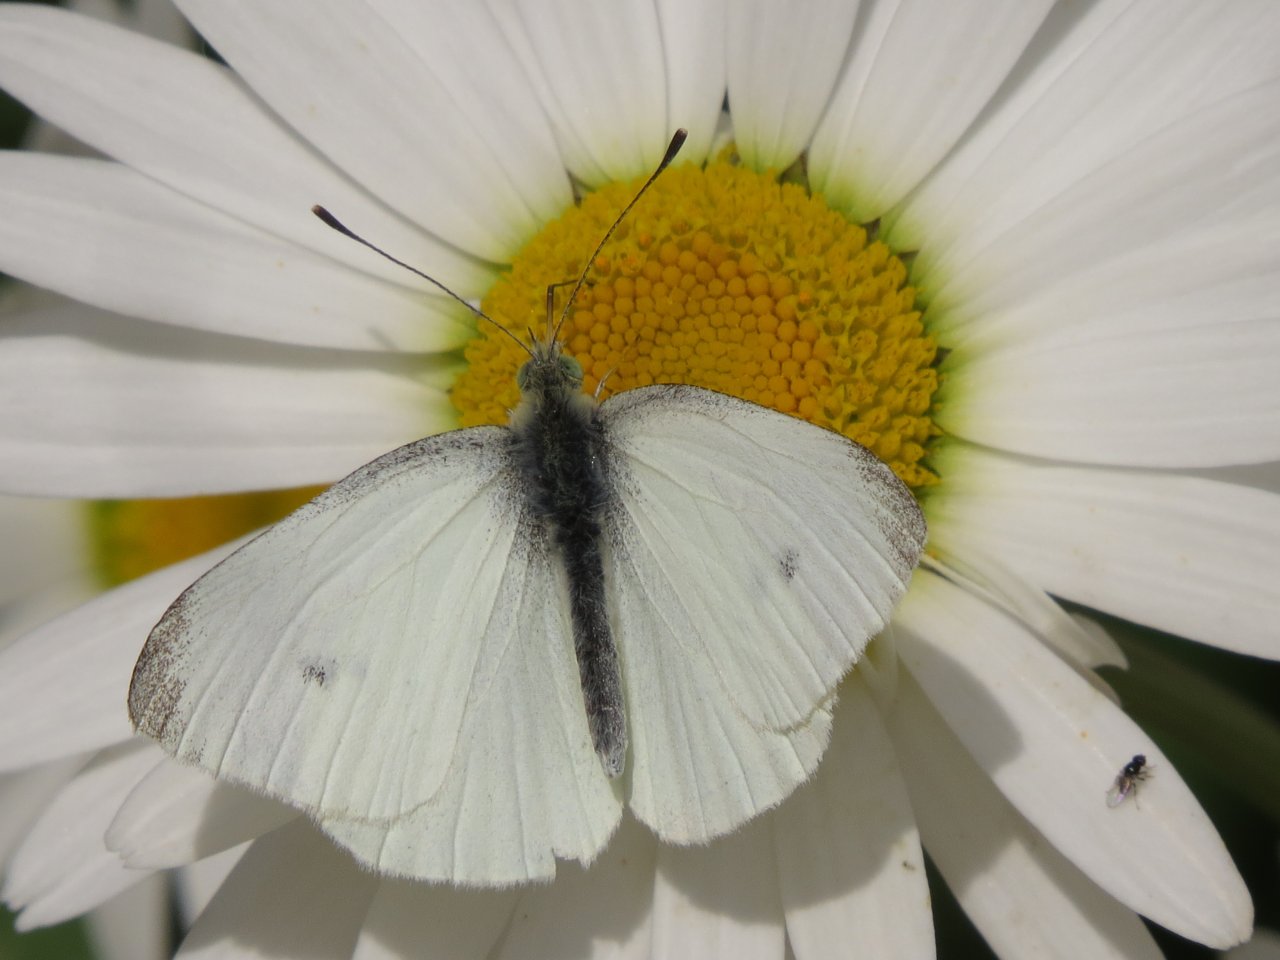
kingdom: Animalia
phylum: Arthropoda
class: Insecta
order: Lepidoptera
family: Pieridae
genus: Pieris
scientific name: Pieris rapae
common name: Cabbage White
